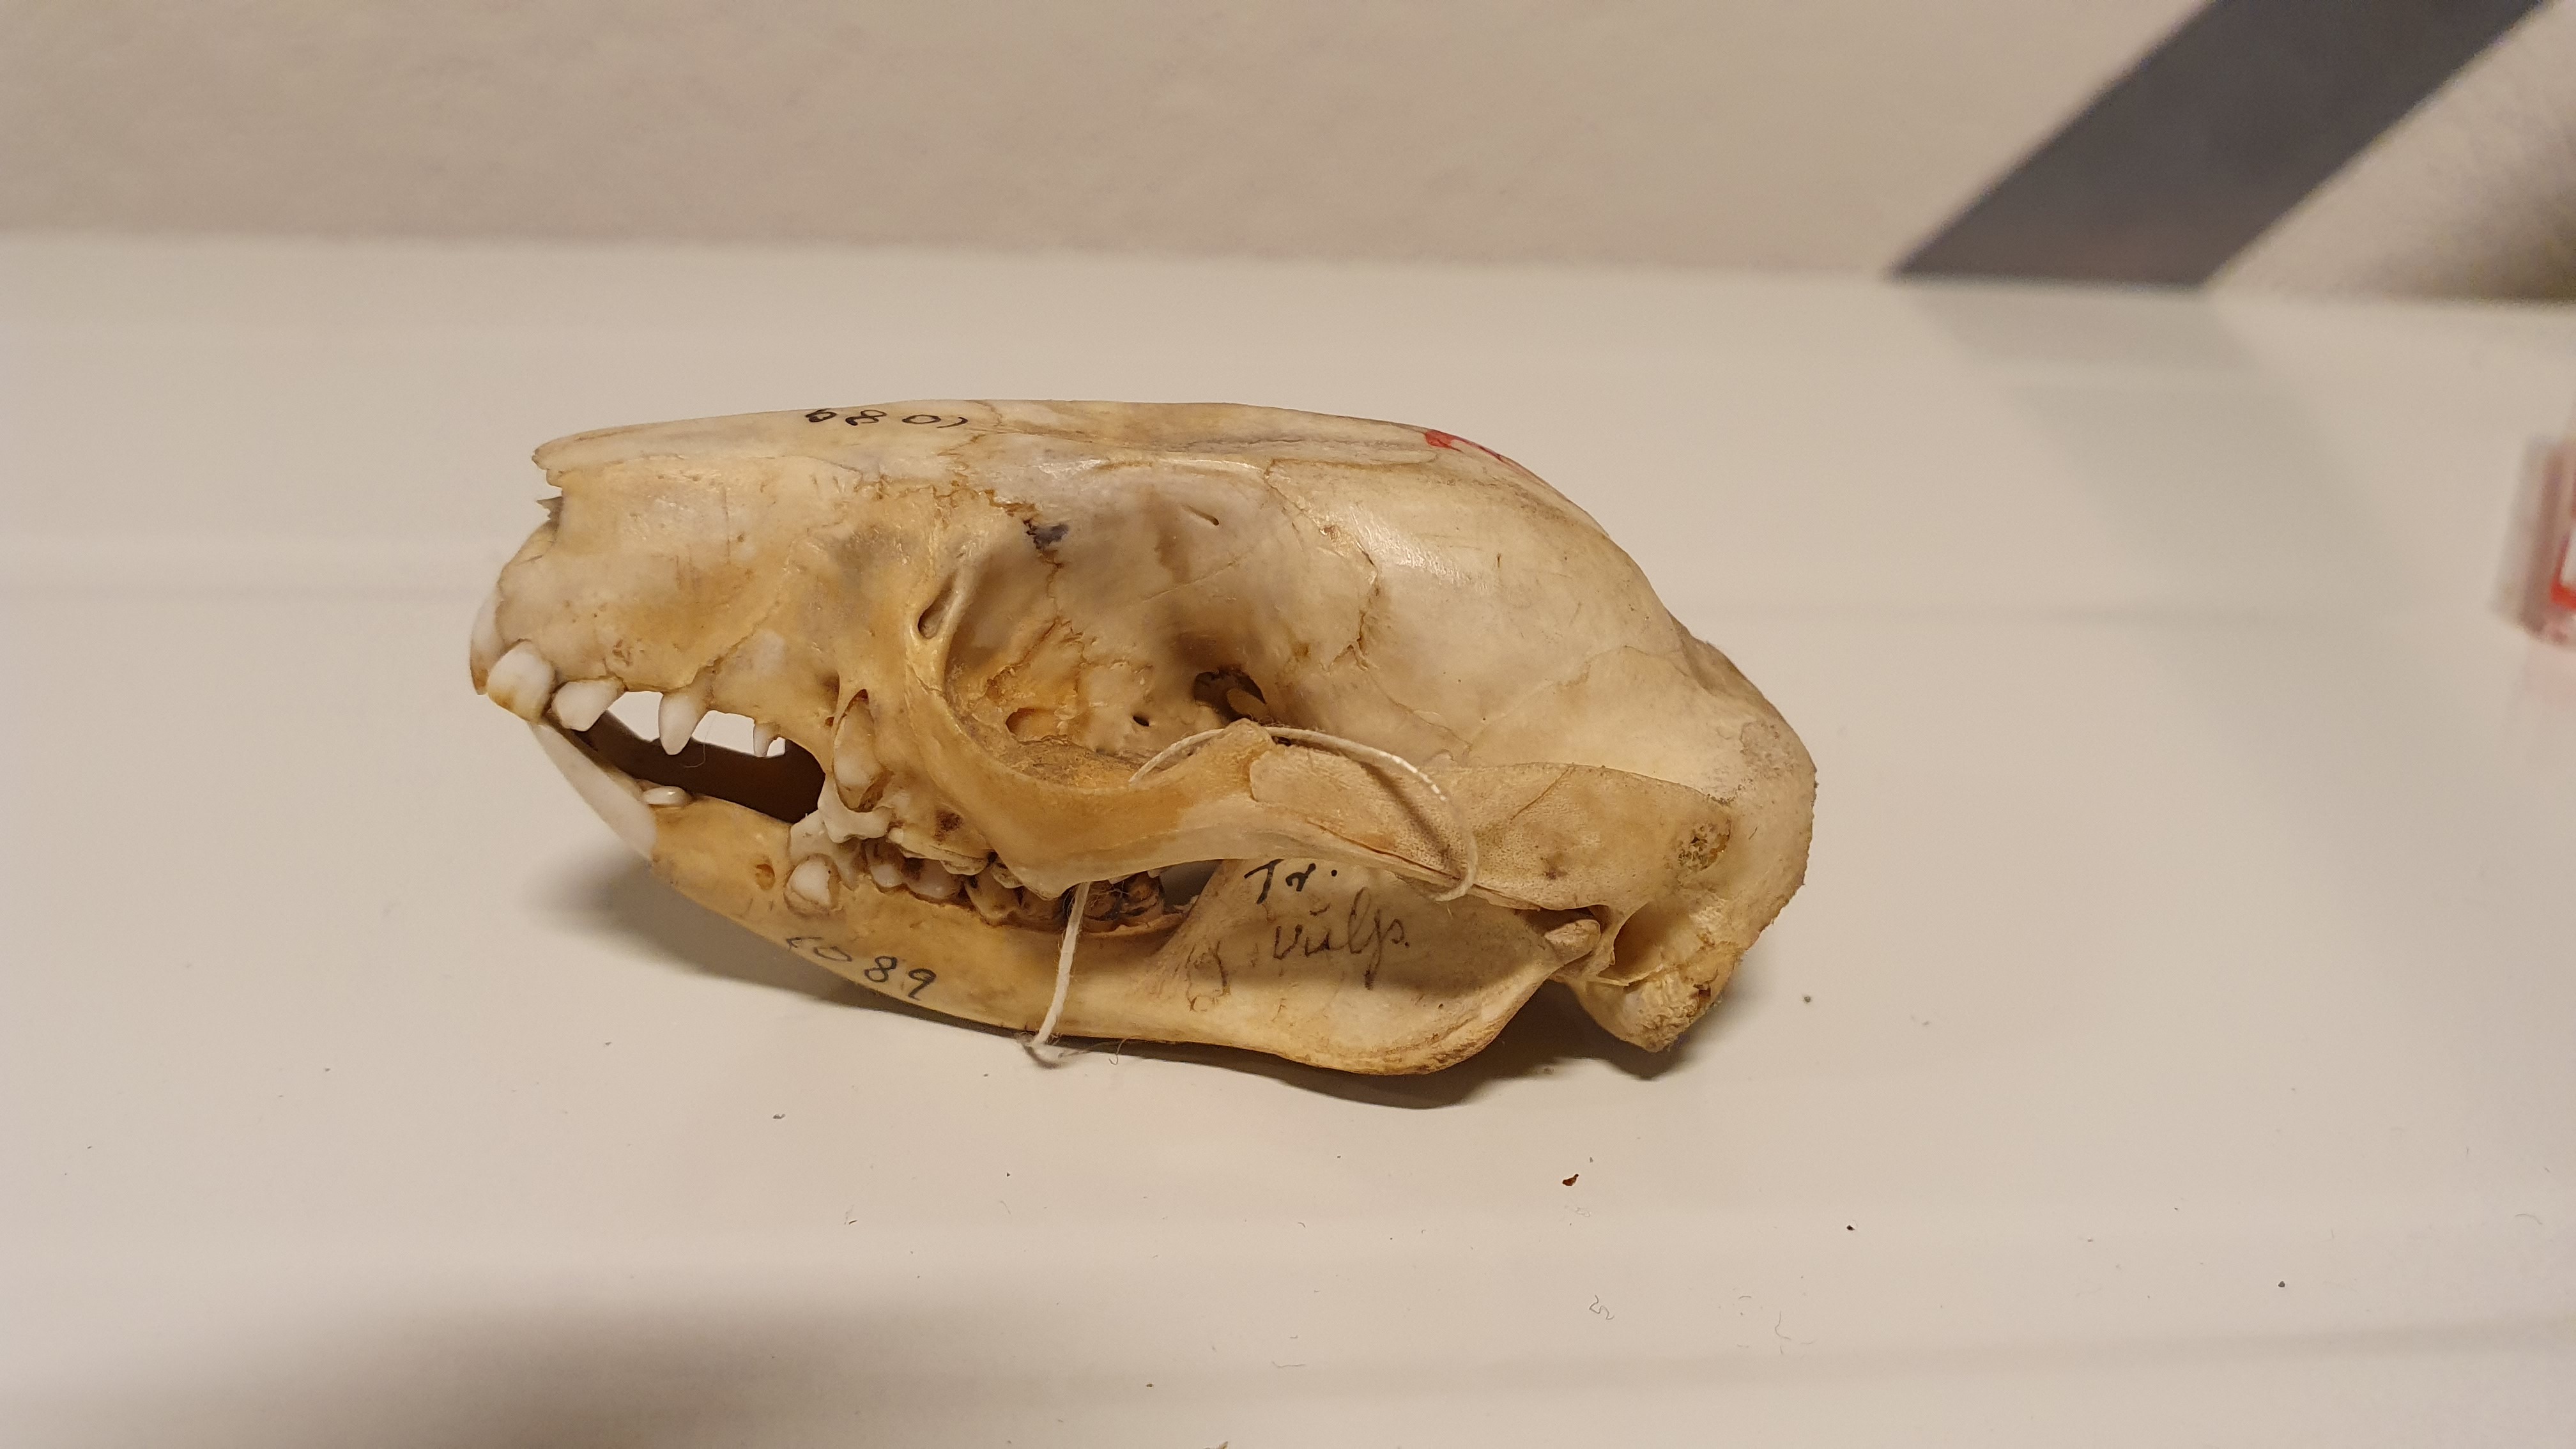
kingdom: Animalia
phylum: Chordata
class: Mammalia
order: Diprotodontia
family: Phalangeridae
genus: Trichosurus
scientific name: Trichosurus arnhemensis
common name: Northern brushtail
